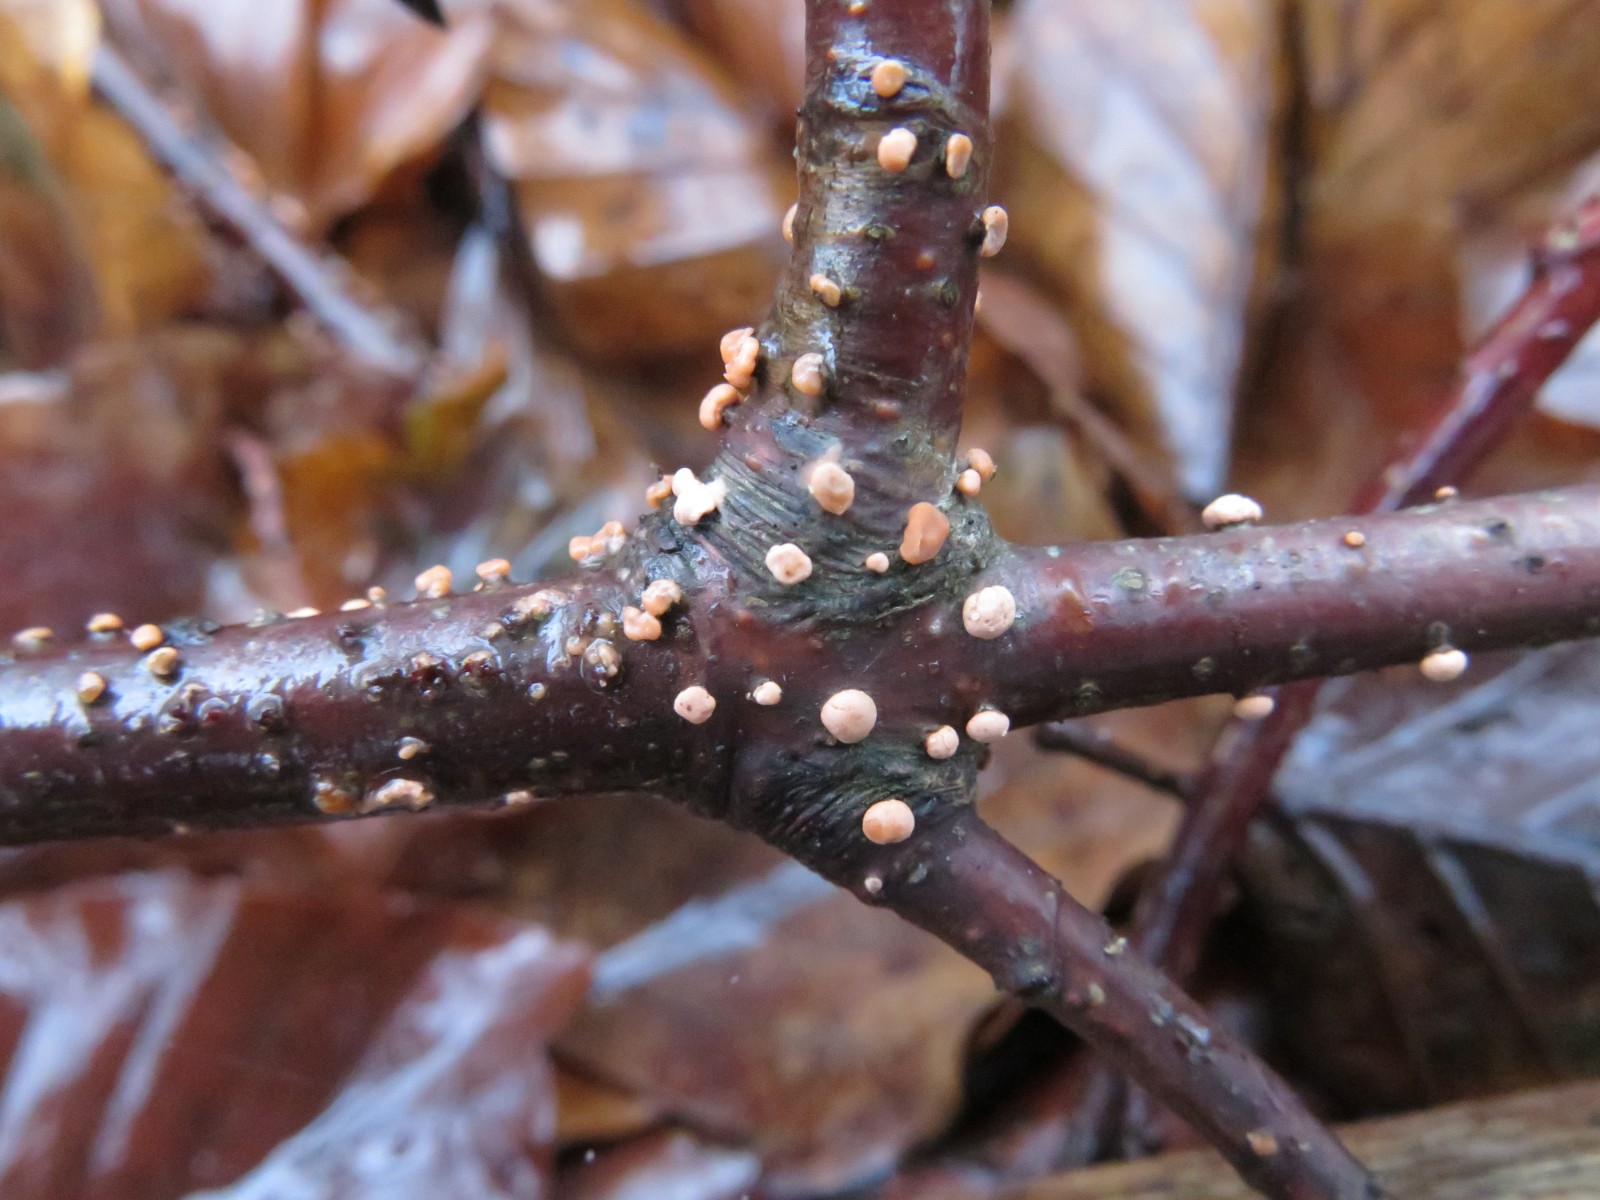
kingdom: Fungi
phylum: Ascomycota
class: Sordariomycetes
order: Hypocreales
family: Nectriaceae
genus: Nectria
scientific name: Nectria cinnabarina
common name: almindelig cinnobersvamp
